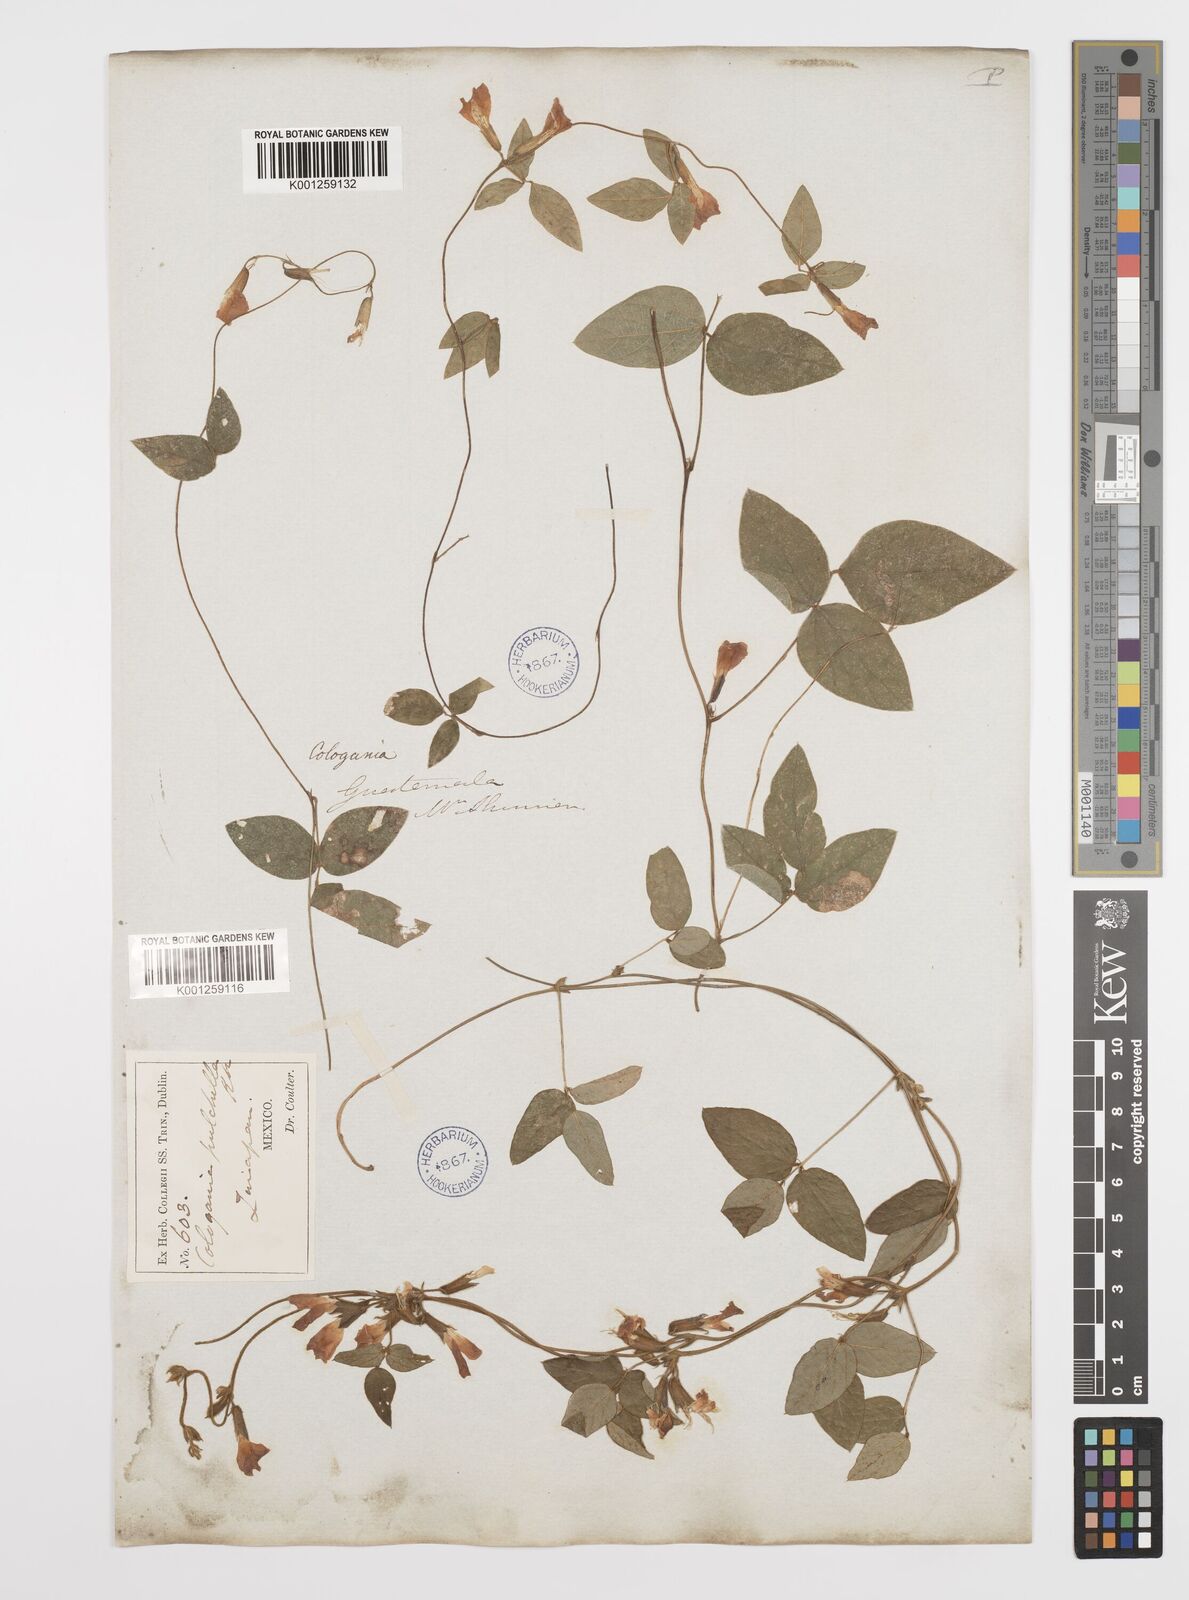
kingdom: Plantae
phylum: Tracheophyta
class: Magnoliopsida
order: Fabales
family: Fabaceae
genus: Cologania
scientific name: Cologania broussonetii
